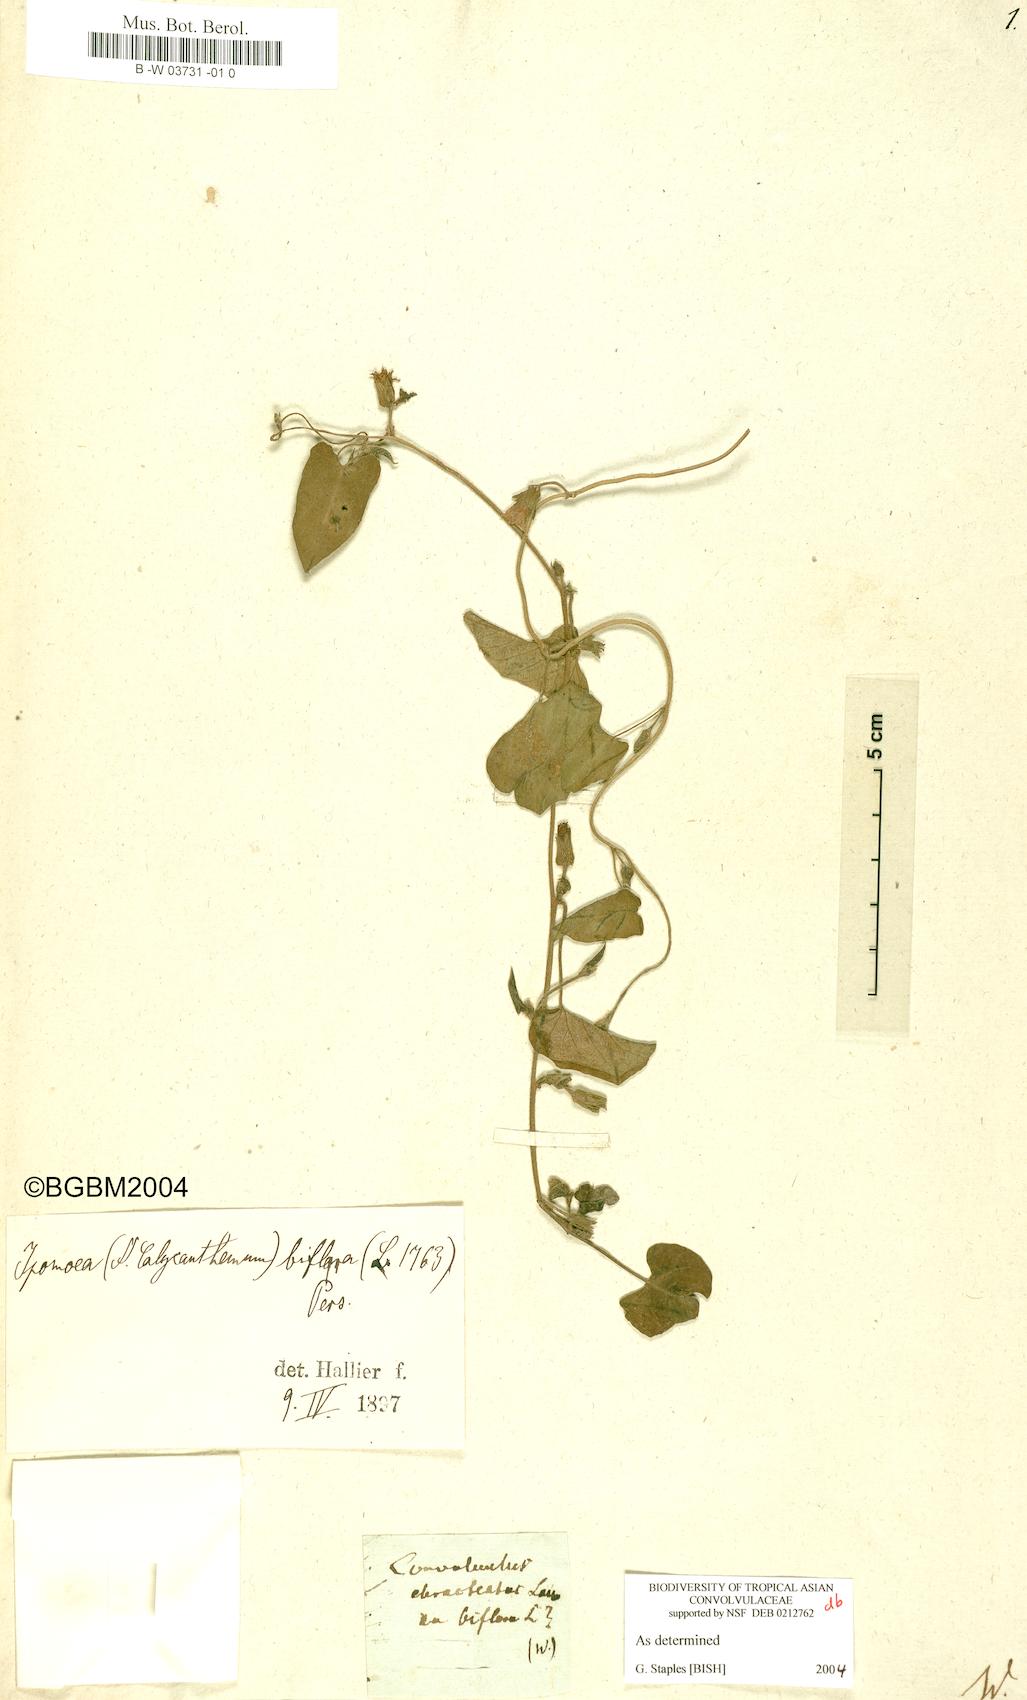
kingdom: Plantae
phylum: Tracheophyta
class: Magnoliopsida
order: Solanales
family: Convolvulaceae
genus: Ipomoea
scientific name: Ipomoea ebracteata
